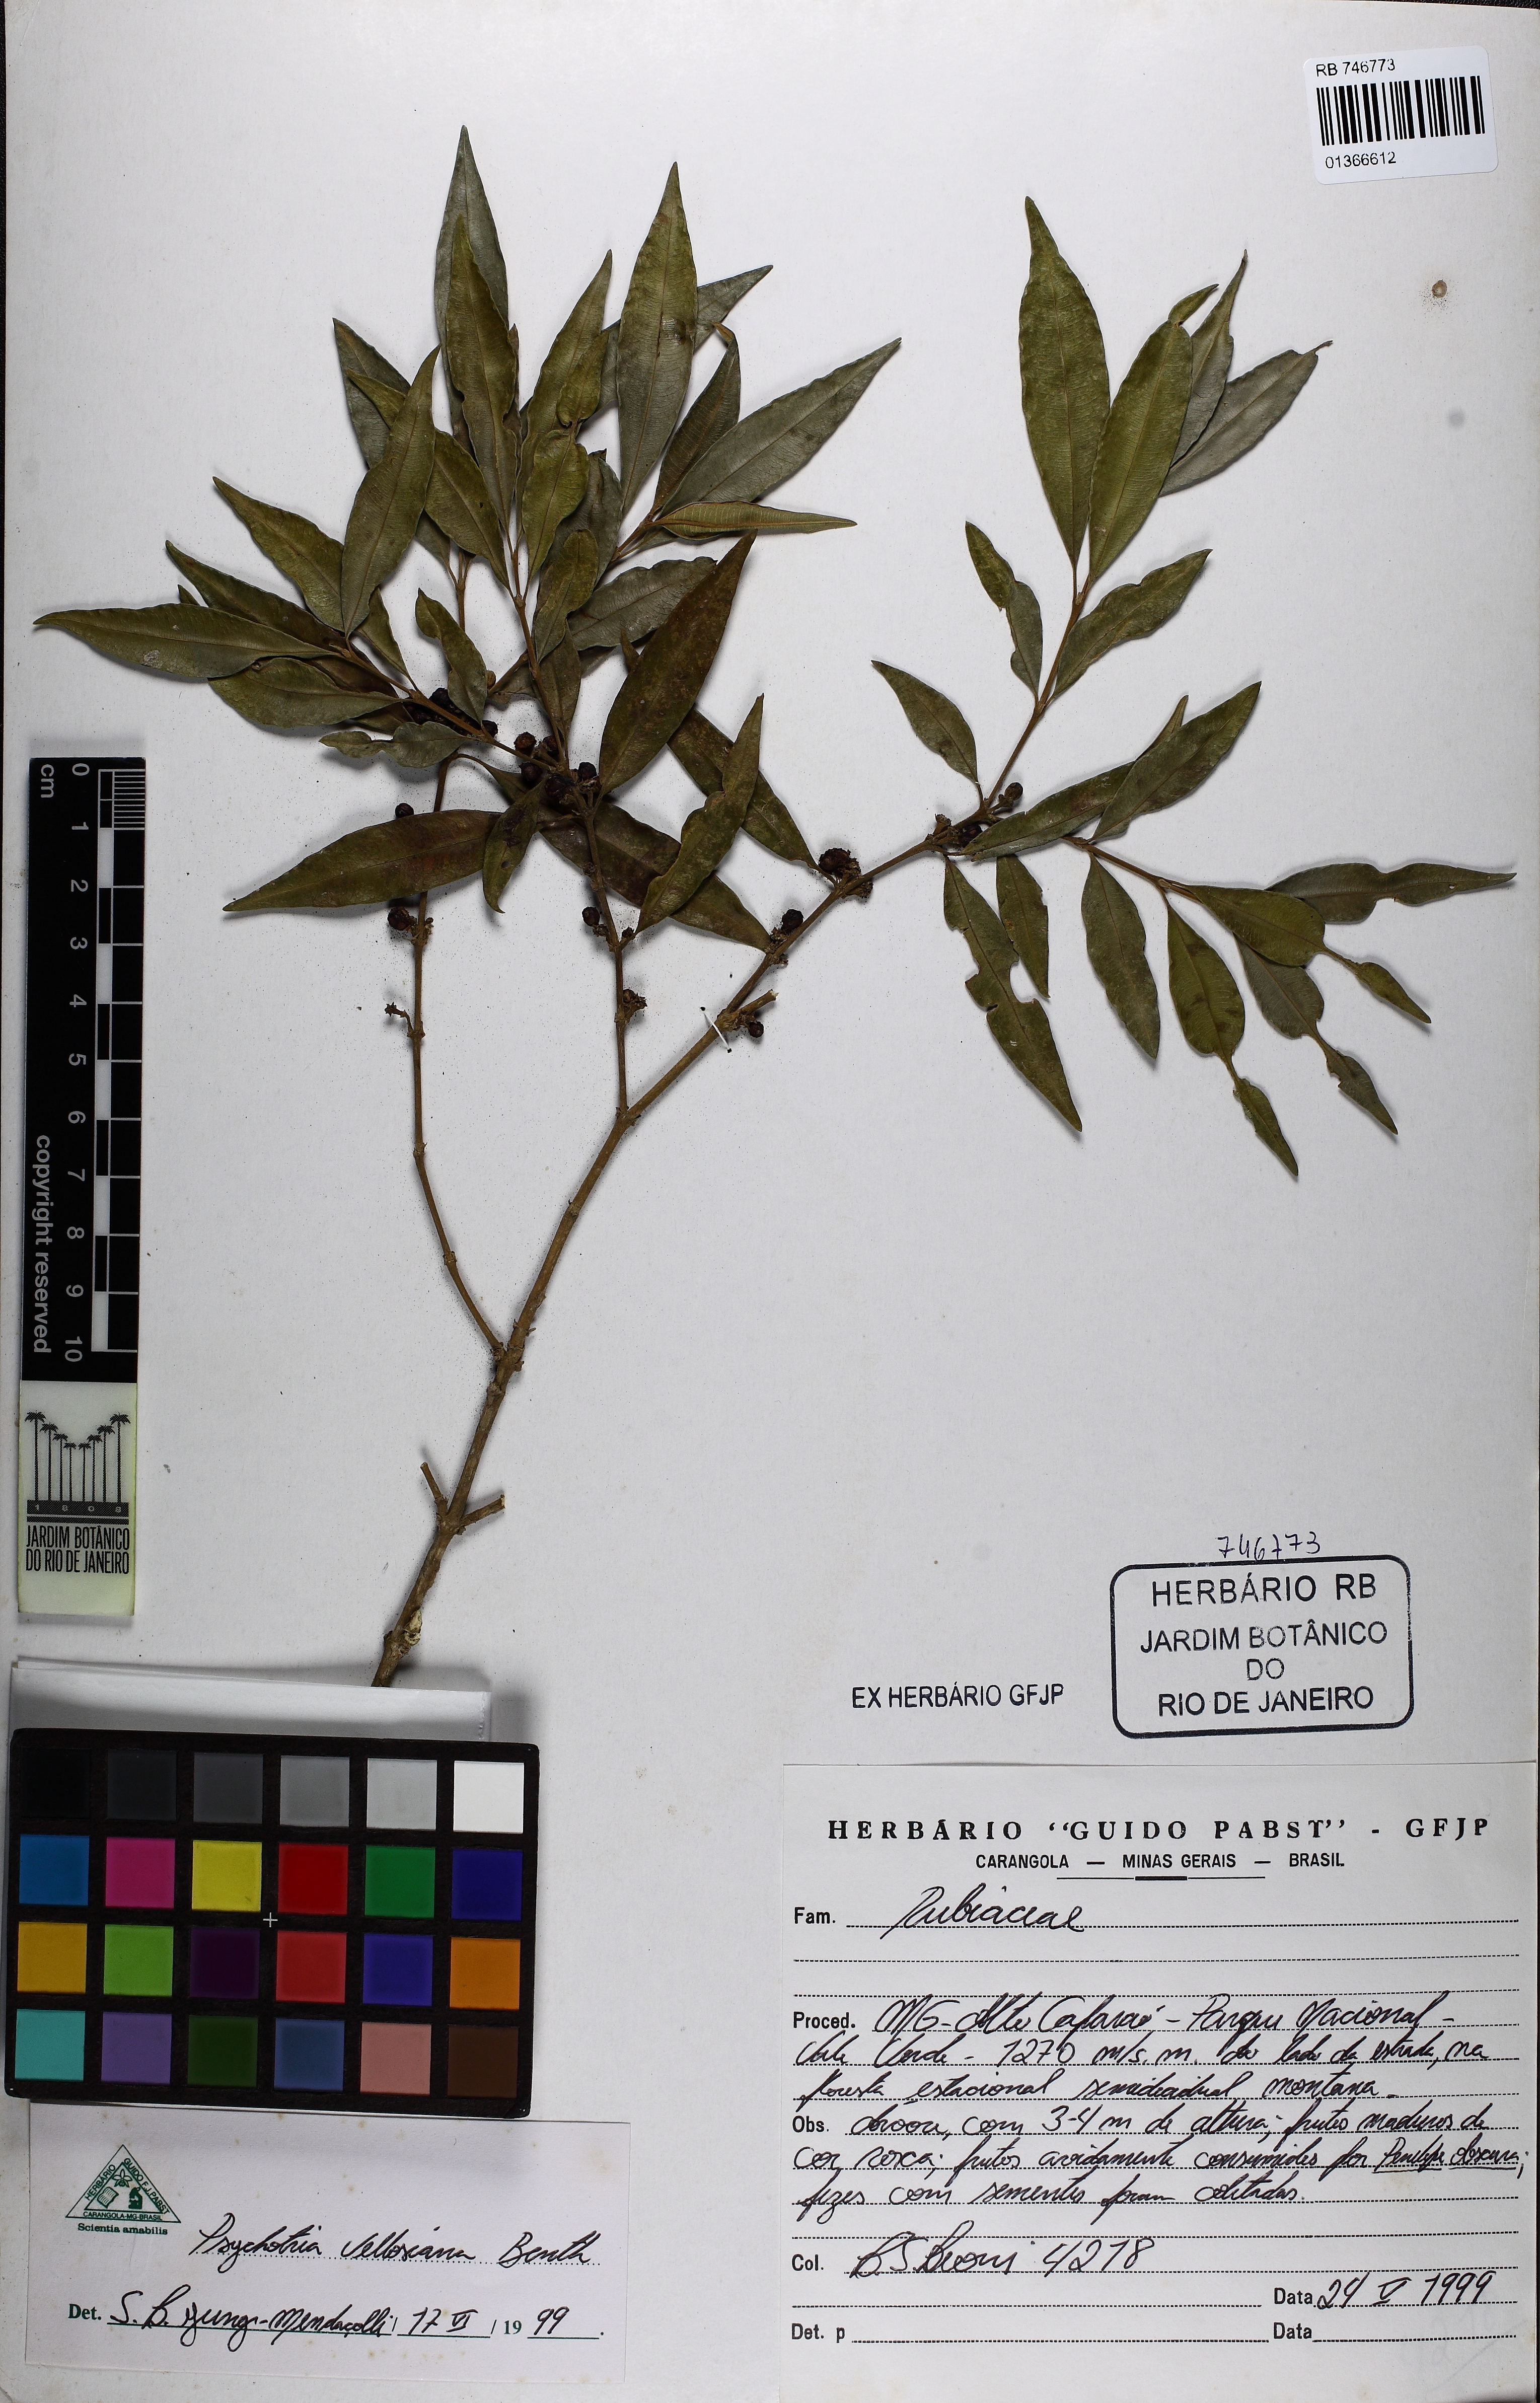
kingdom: Plantae
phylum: Tracheophyta
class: Magnoliopsida
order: Gentianales
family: Rubiaceae
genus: Palicourea
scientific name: Palicourea sessilis
